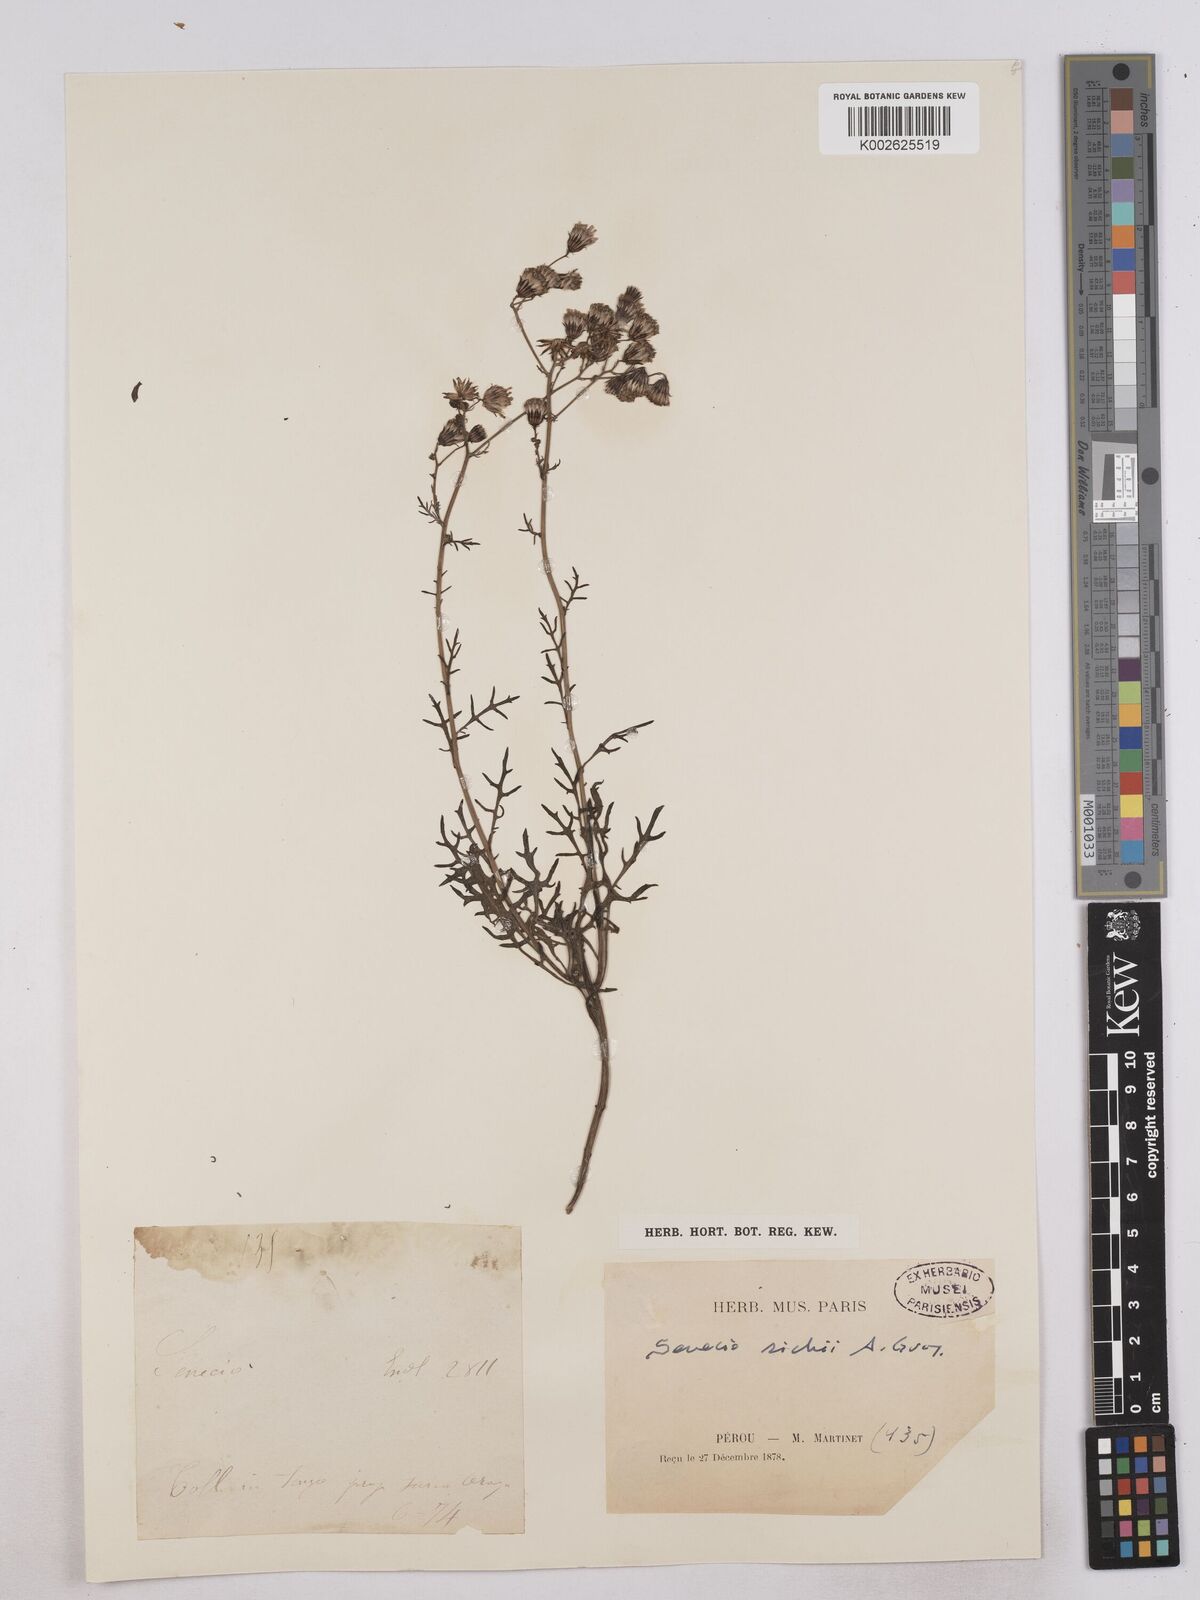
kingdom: Plantae
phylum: Tracheophyta
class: Magnoliopsida
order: Asterales
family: Asteraceae
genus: Senecio
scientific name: Senecio richii
